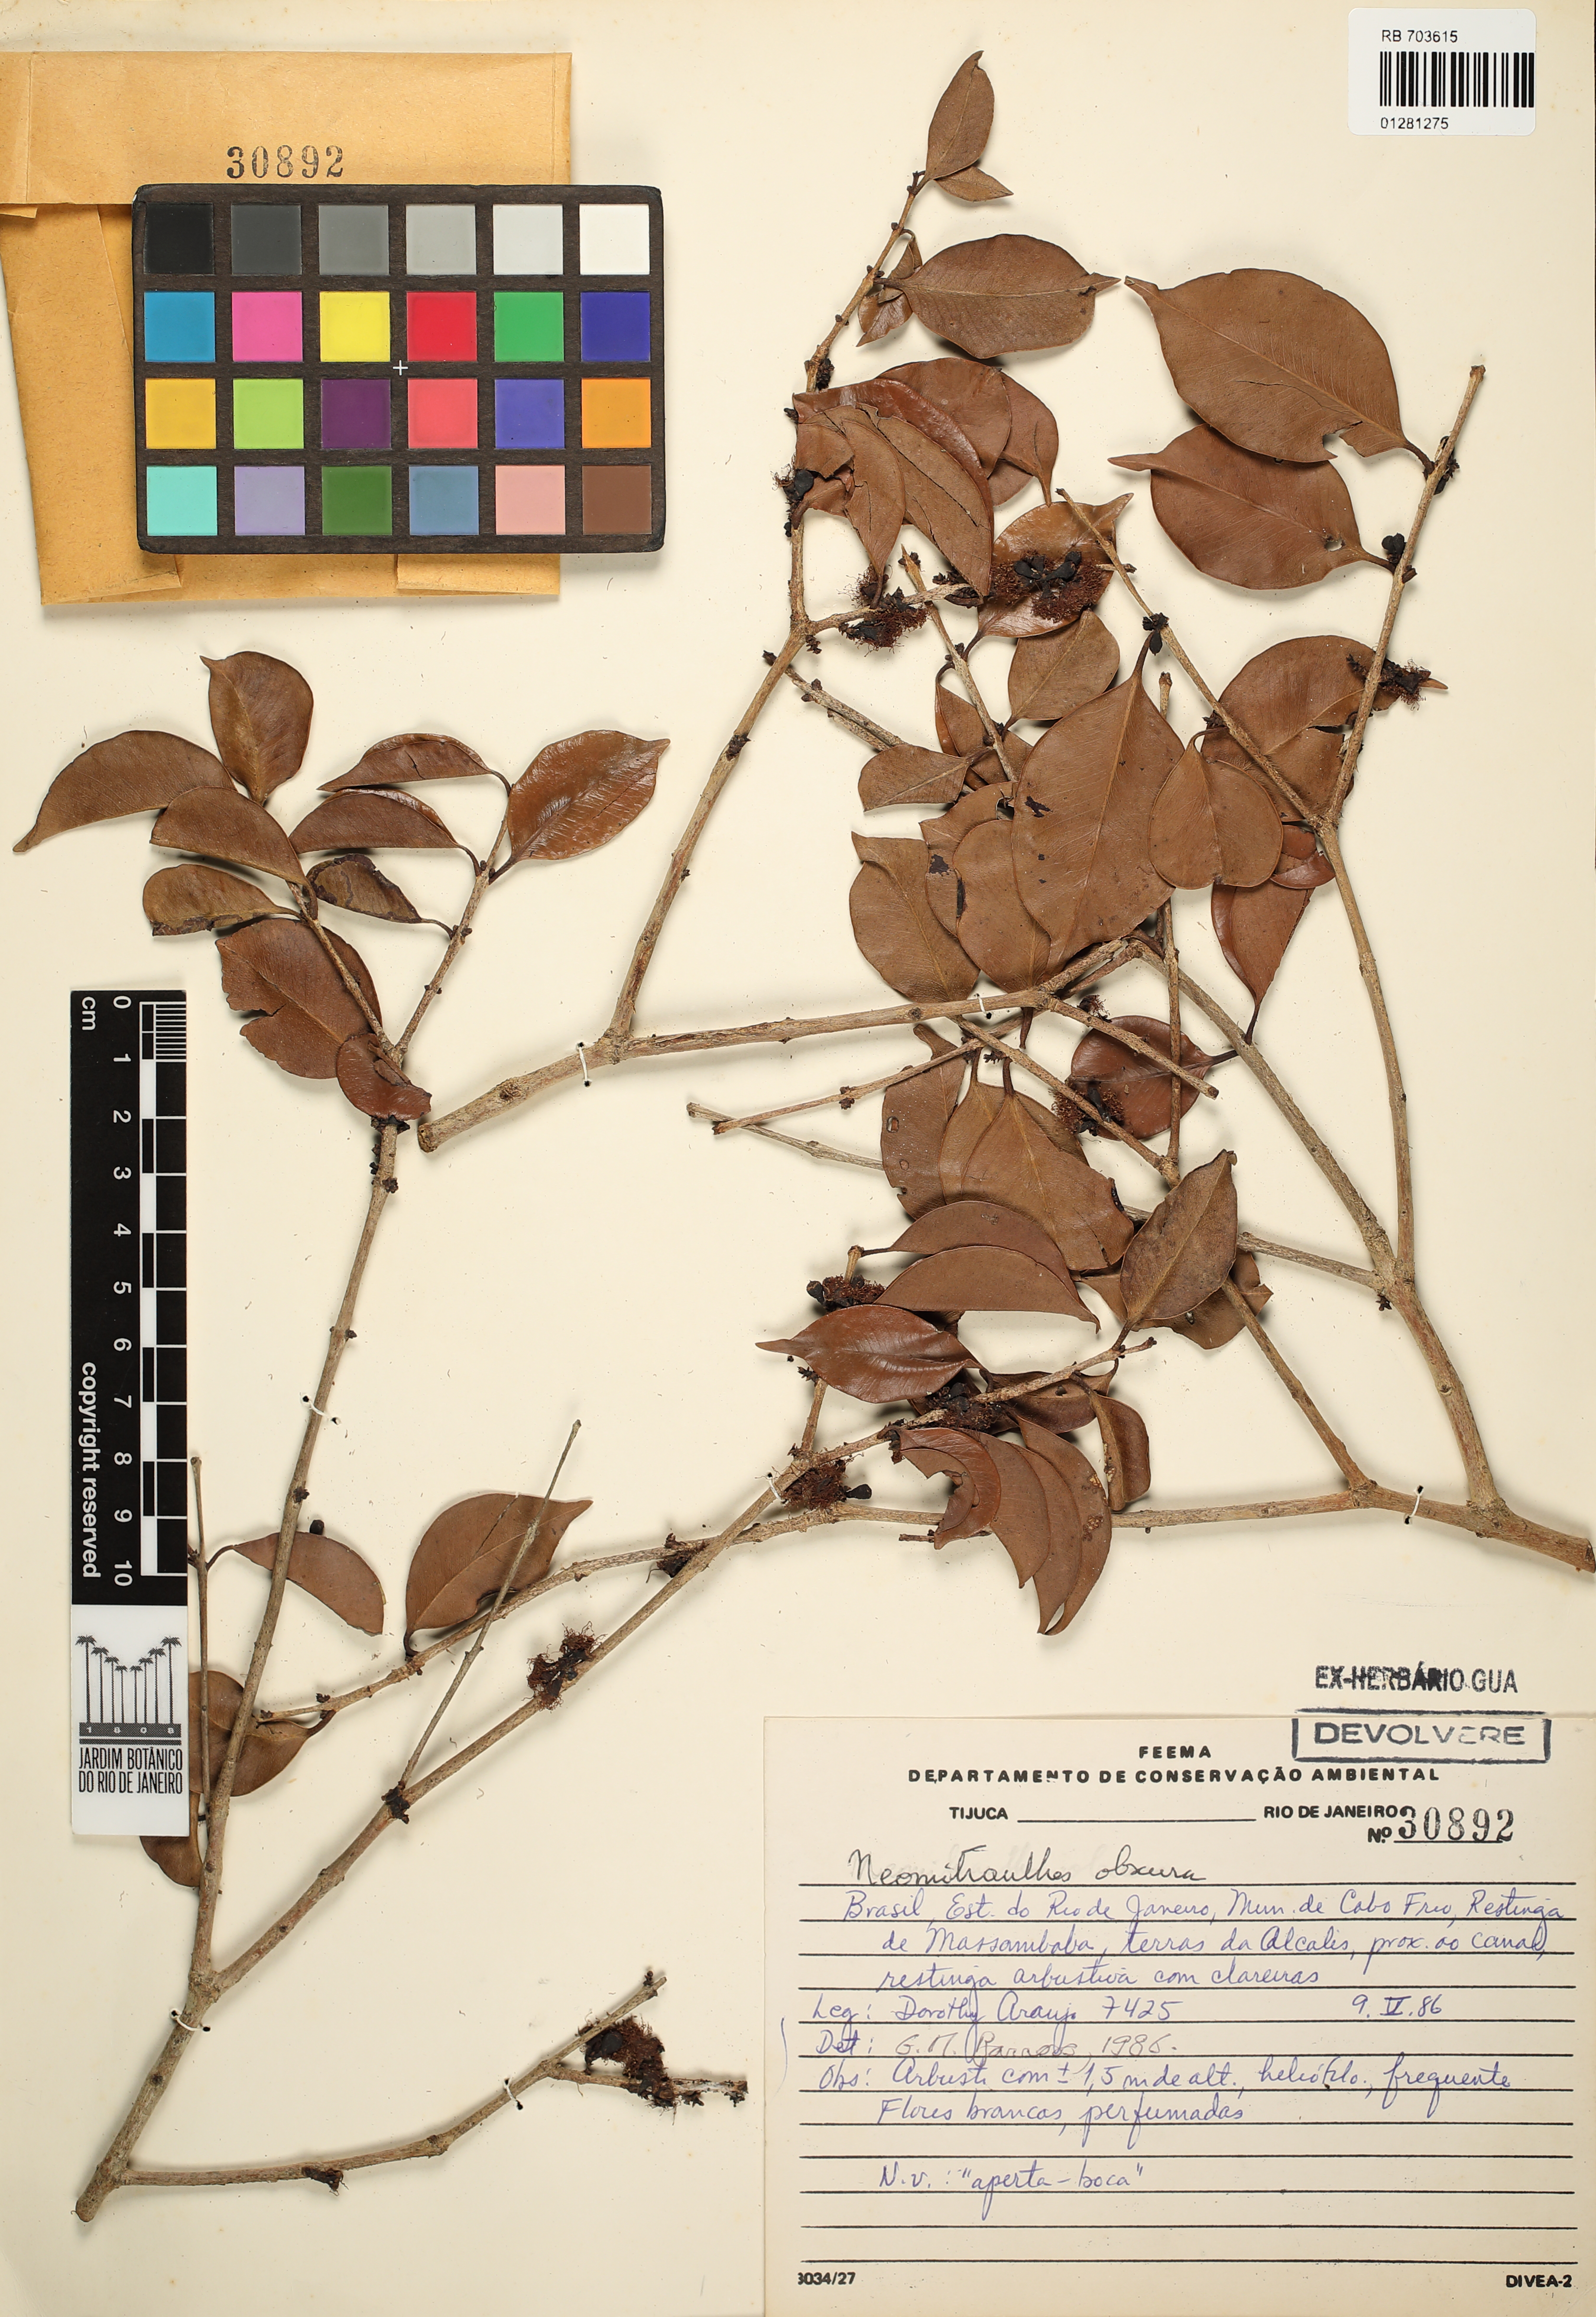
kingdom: Plantae
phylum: Tracheophyta
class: Magnoliopsida
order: Myrtales
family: Myrtaceae
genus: Neomitranthes
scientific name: Neomitranthes obscura
